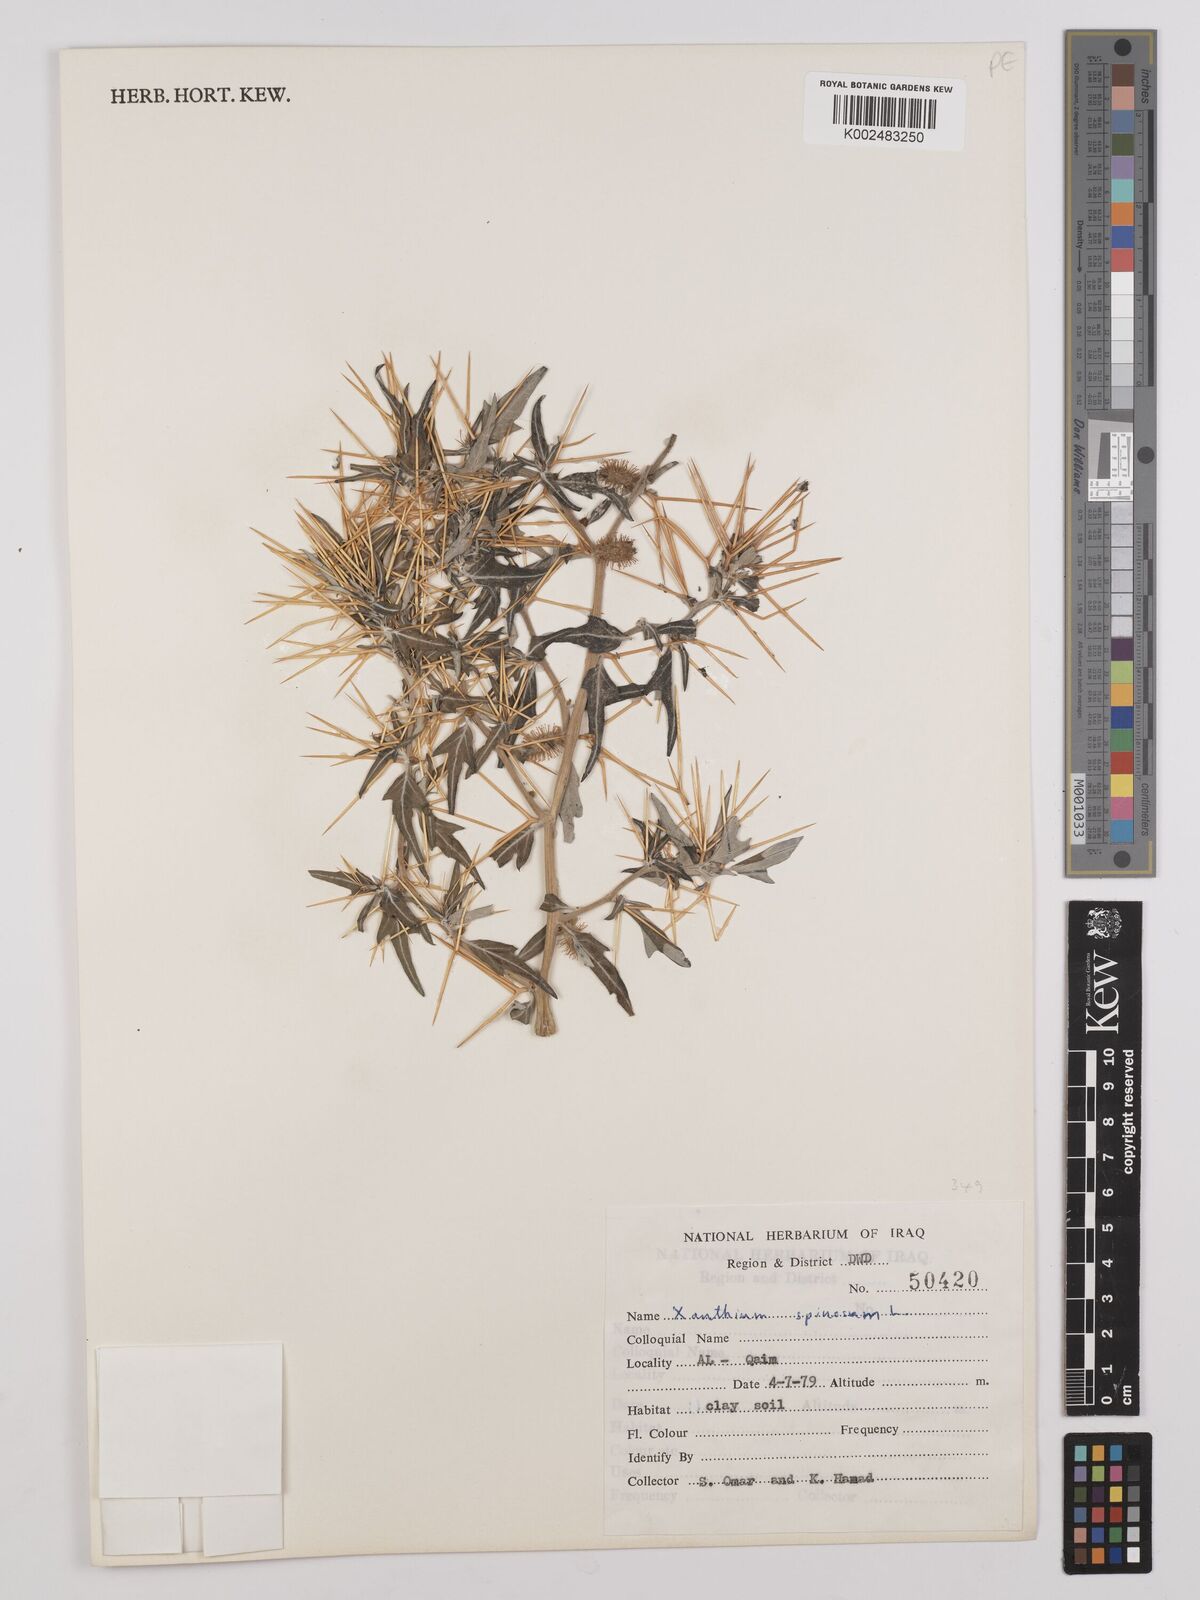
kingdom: Plantae
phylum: Tracheophyta
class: Magnoliopsida
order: Asterales
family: Asteraceae
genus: Xanthium
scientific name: Xanthium spinosum
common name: Spiny cocklebur
